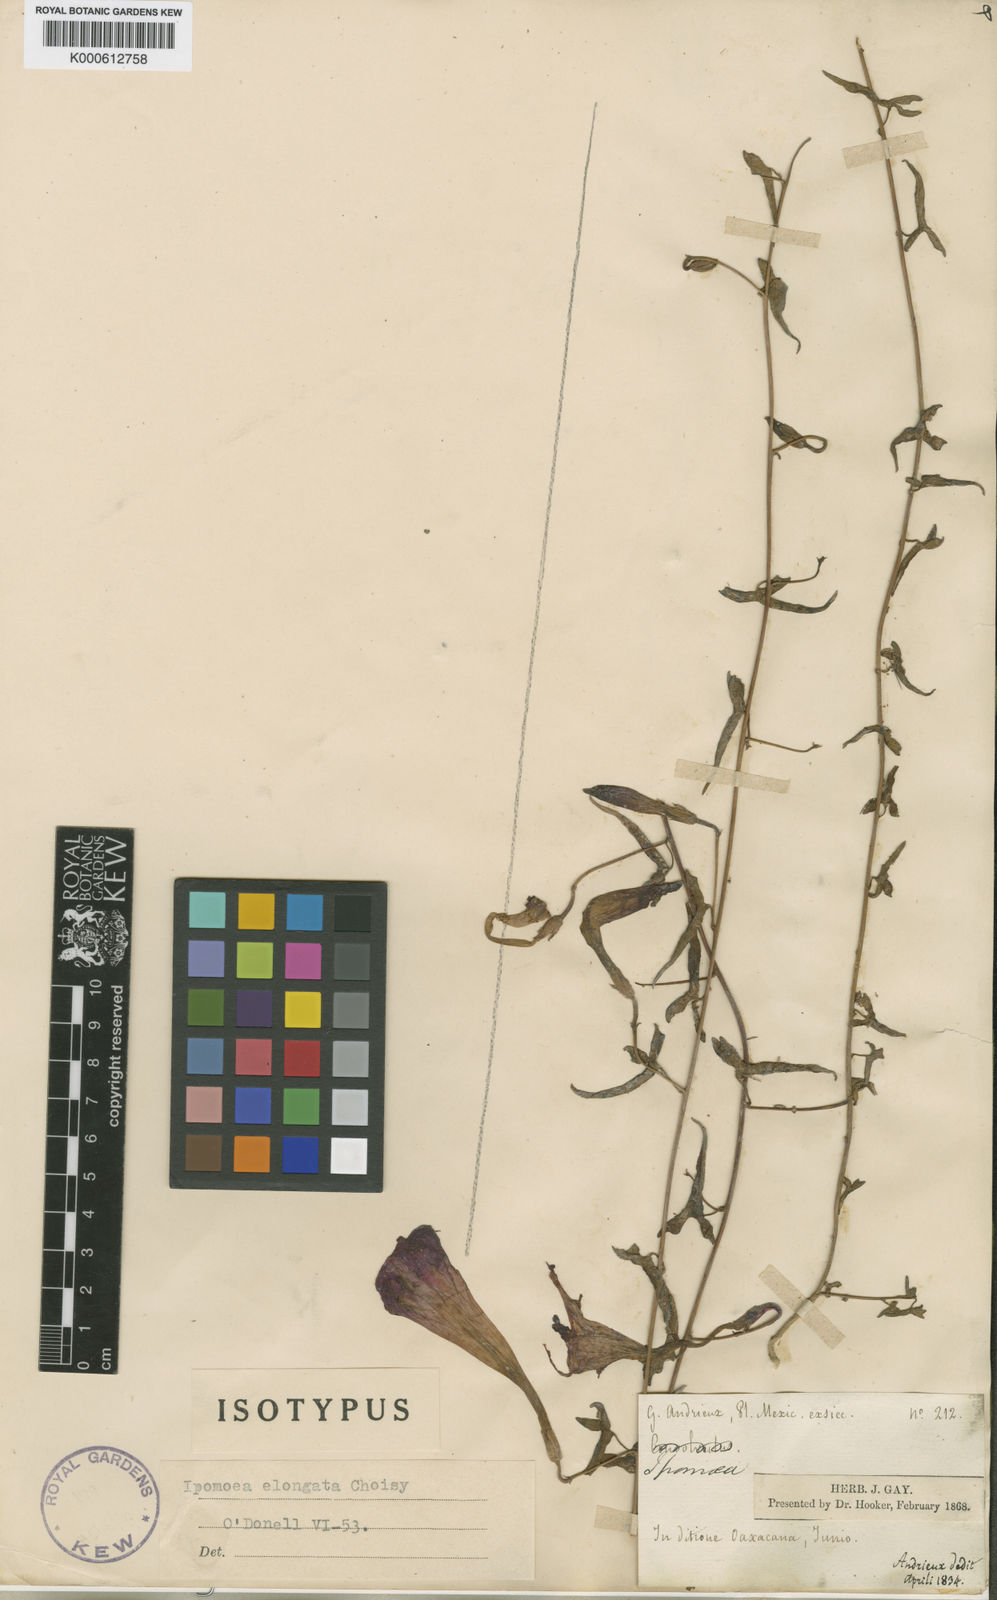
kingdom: Plantae
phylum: Tracheophyta
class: Magnoliopsida
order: Solanales
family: Convolvulaceae
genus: Ipomoea
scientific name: Ipomoea elongata
